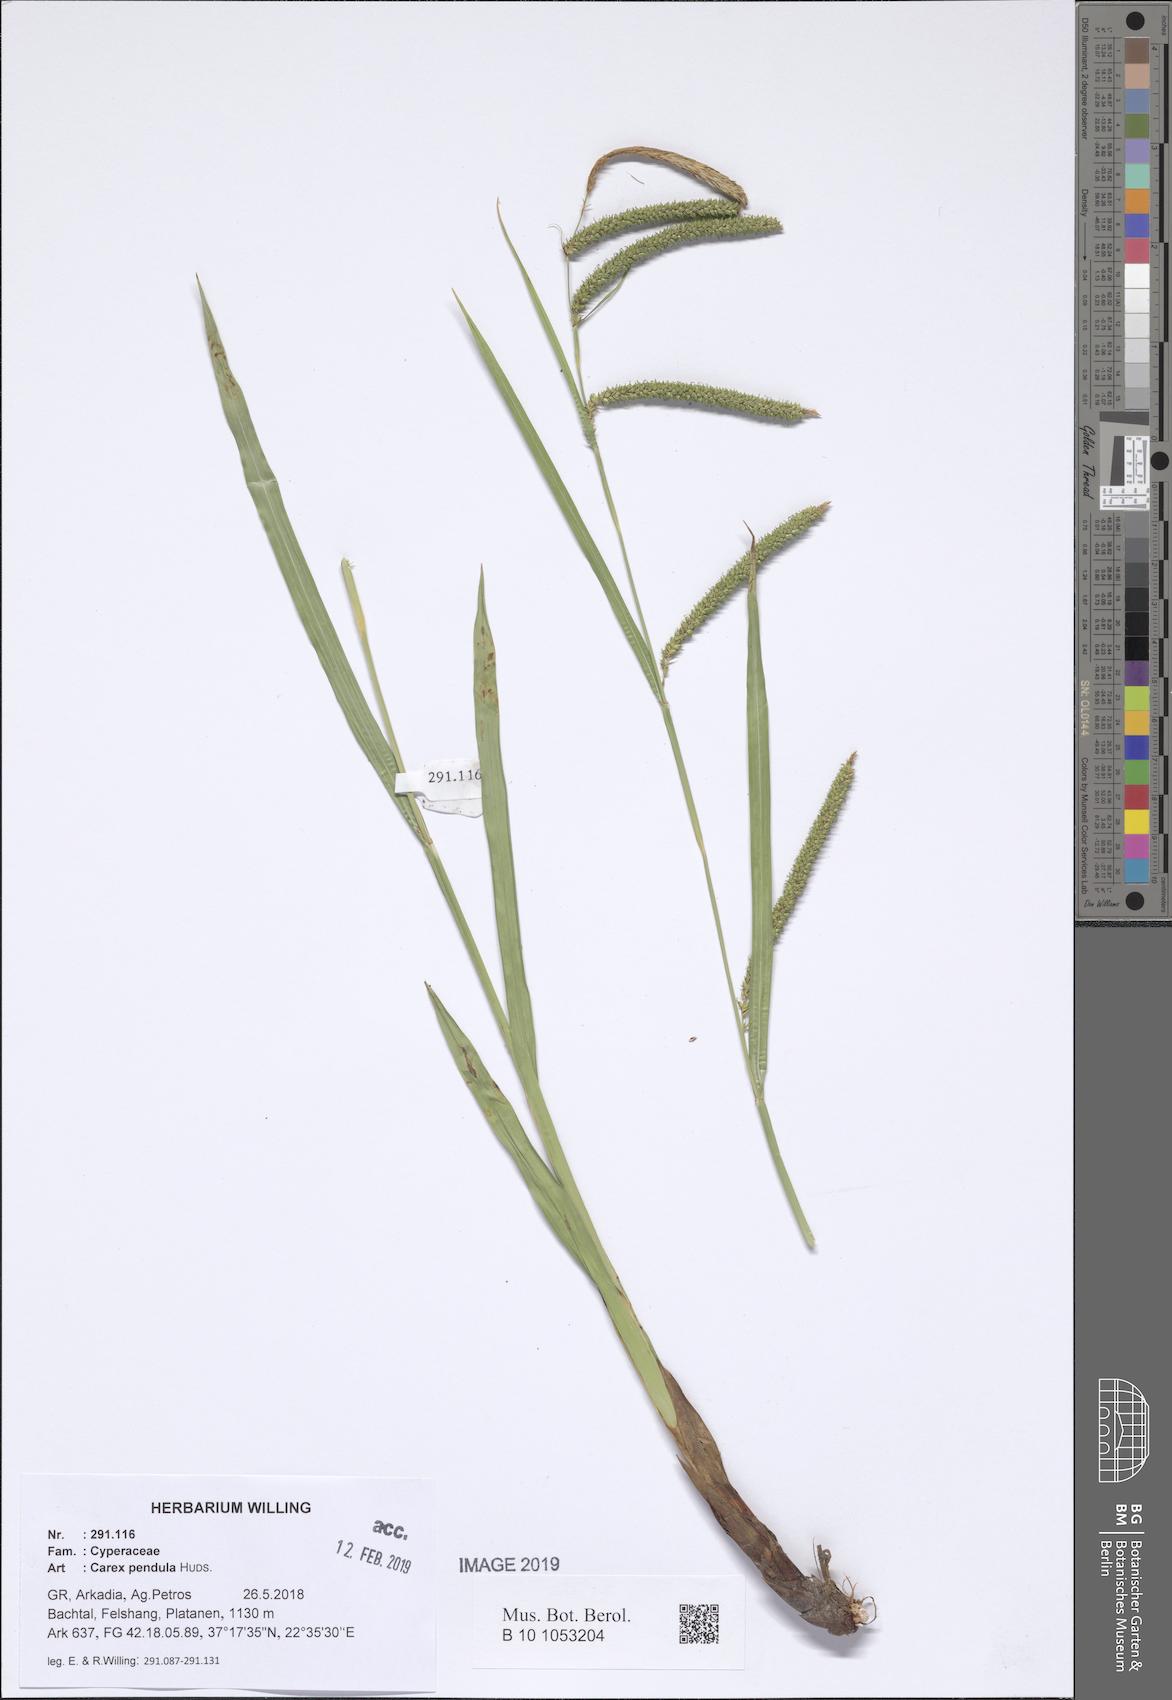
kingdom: Plantae
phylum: Tracheophyta
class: Liliopsida
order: Poales
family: Cyperaceae
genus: Carex
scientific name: Carex pendula
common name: Pendulous sedge
